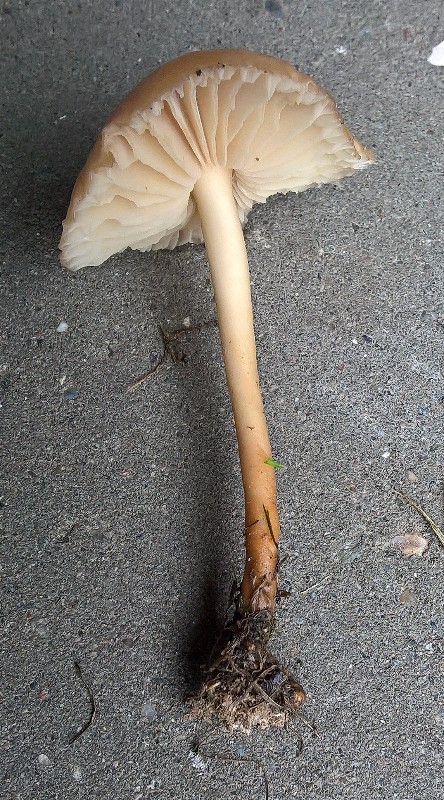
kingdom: Fungi
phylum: Basidiomycota
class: Agaricomycetes
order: Agaricales
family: Marasmiaceae
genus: Marasmius
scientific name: Marasmius oreades
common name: elledans-bruskhat
